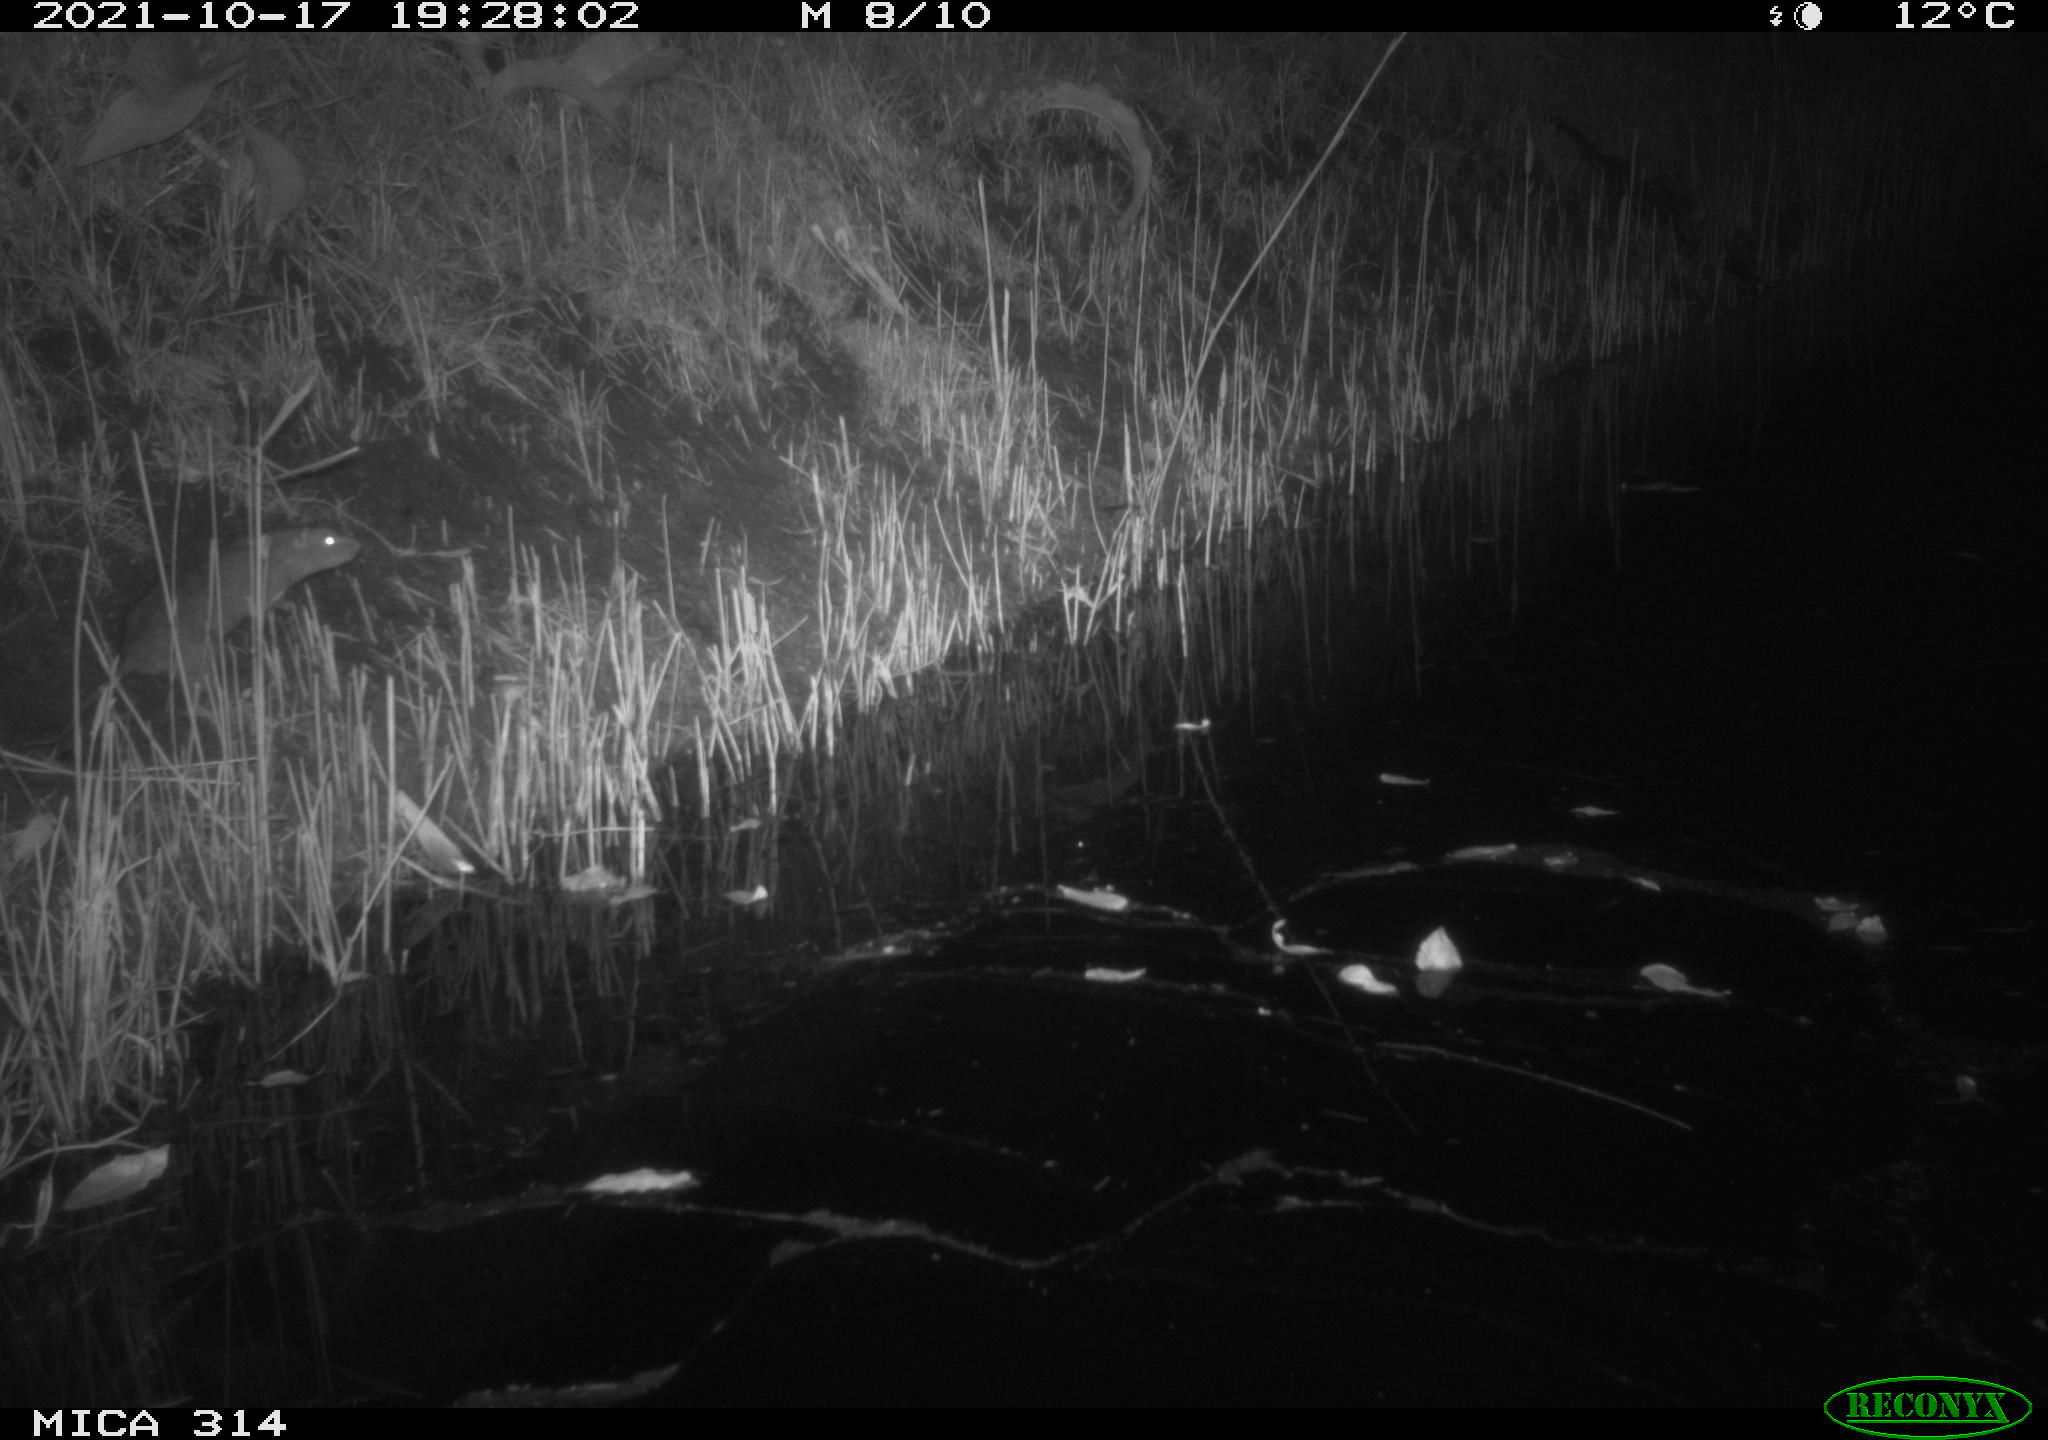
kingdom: Animalia
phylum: Chordata
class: Mammalia
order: Rodentia
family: Muridae
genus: Rattus
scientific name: Rattus norvegicus
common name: Brown rat
